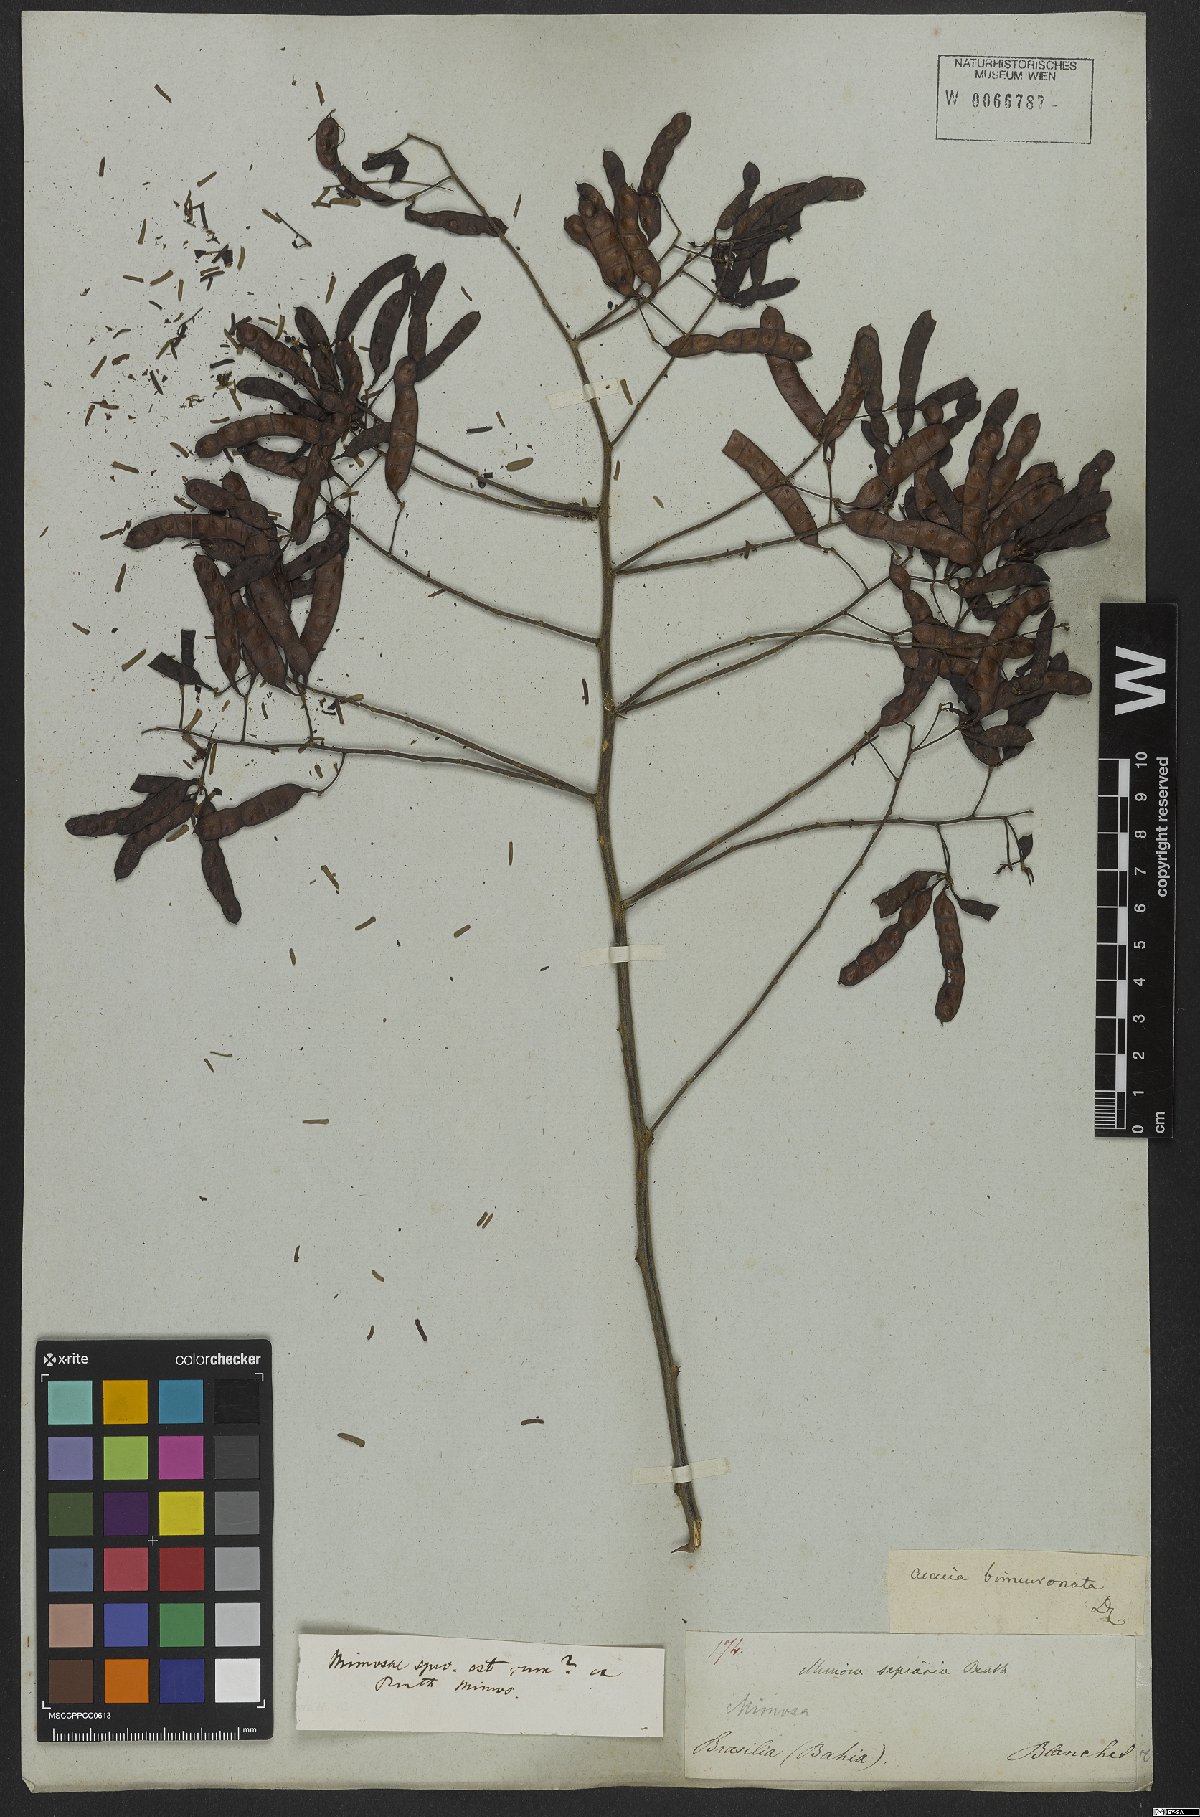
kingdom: Plantae
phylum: Tracheophyta
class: Magnoliopsida
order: Fabales
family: Fabaceae
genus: Mimosa
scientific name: Mimosa bimucronata
